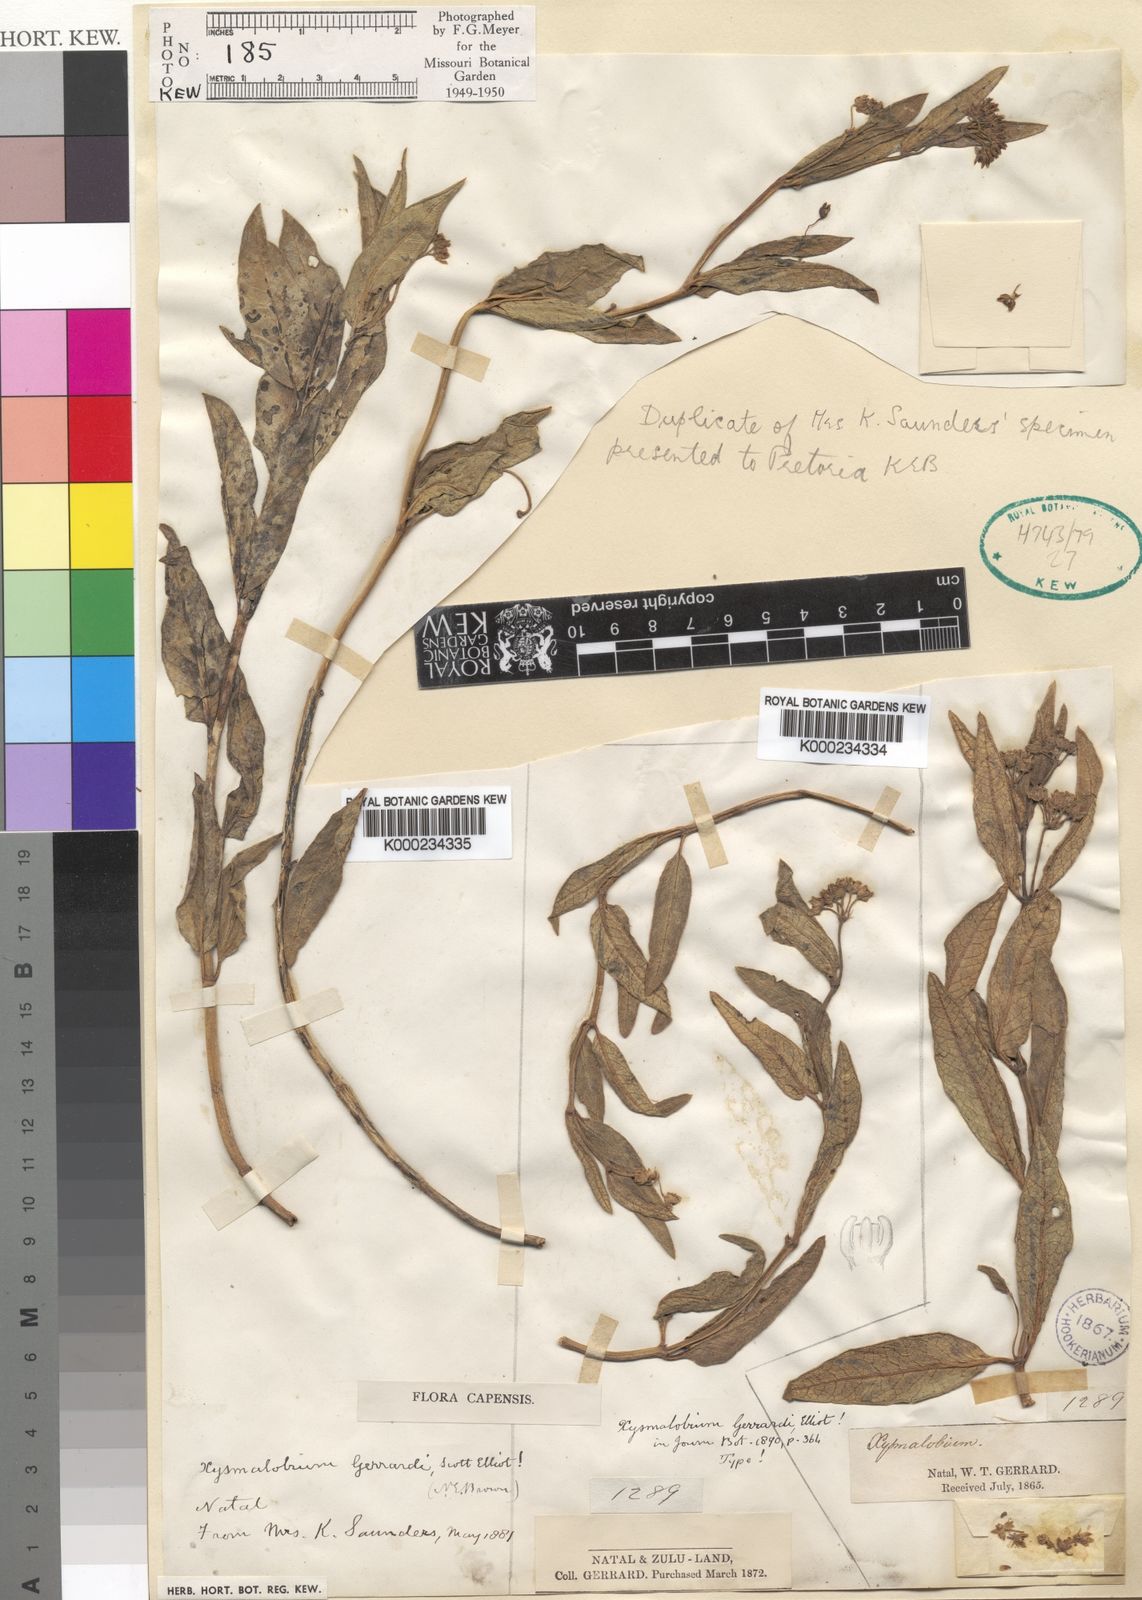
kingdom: Plantae
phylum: Tracheophyta
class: Magnoliopsida
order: Gentianales
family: Apocynaceae
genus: Xysmalobium
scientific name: Xysmalobium gerrardii
